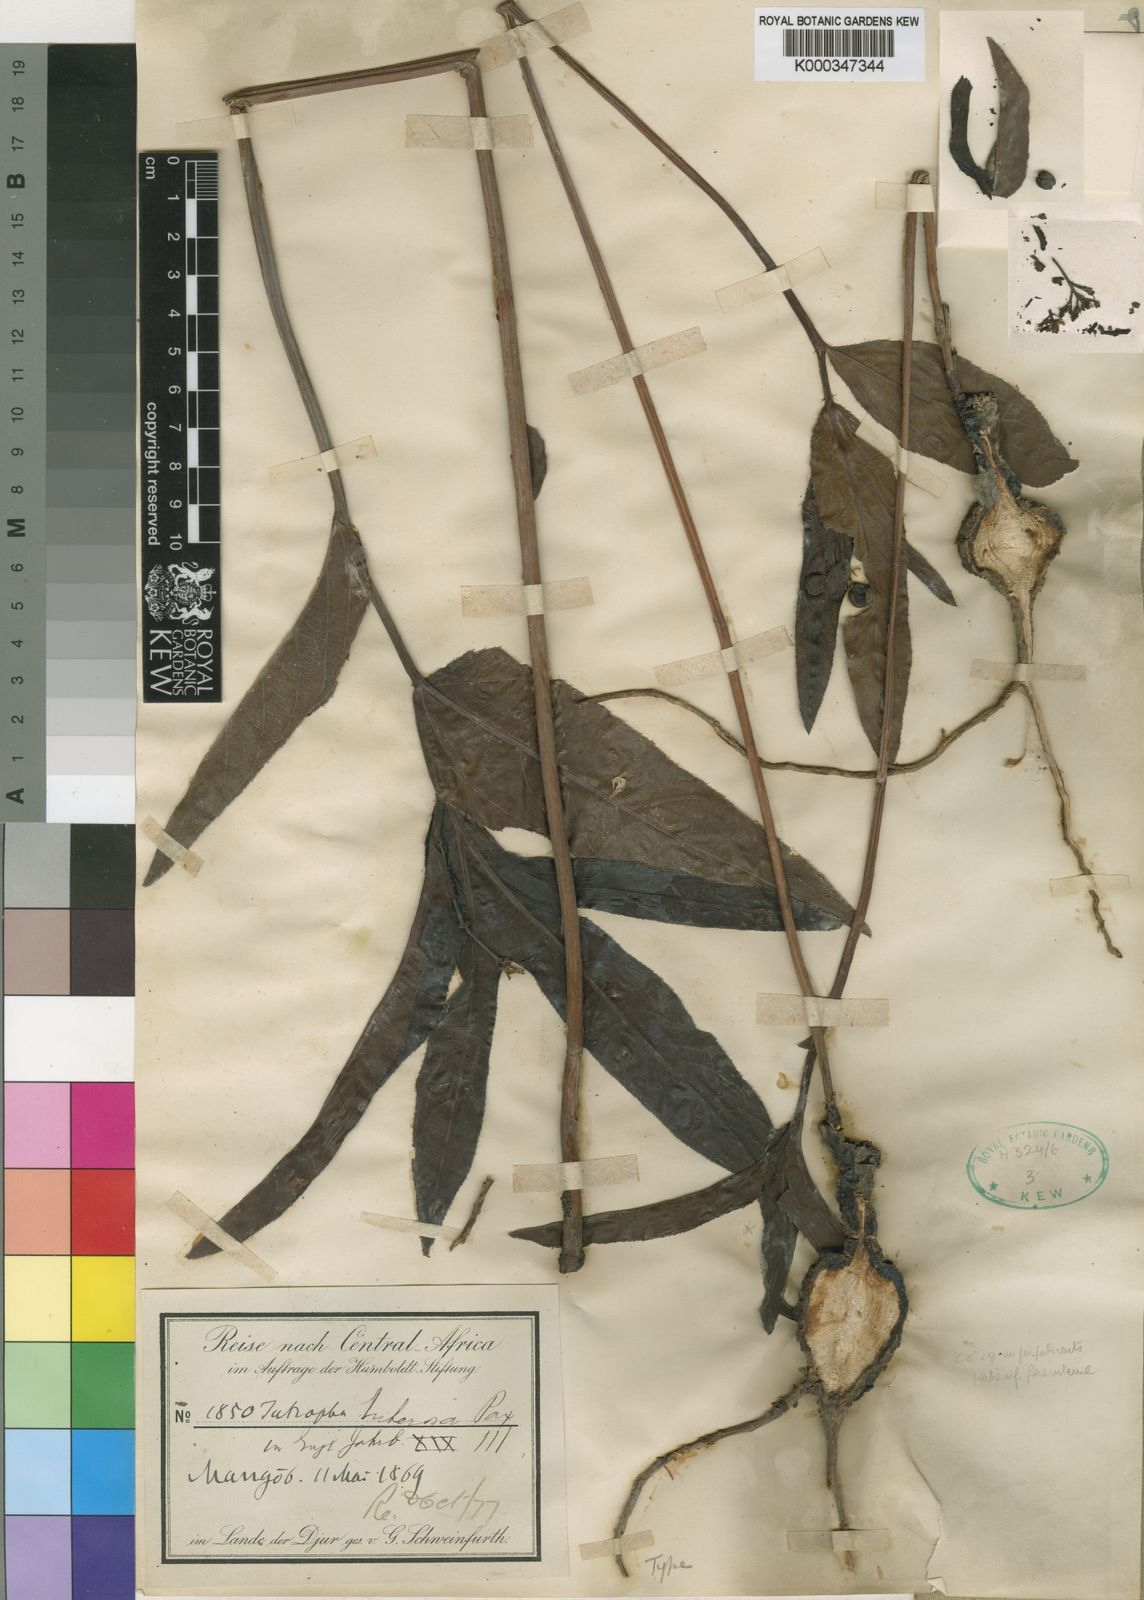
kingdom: Plantae
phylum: Tracheophyta
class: Magnoliopsida
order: Malpighiales
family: Euphorbiaceae
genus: Jatropha
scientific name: Jatropha afrotuberosa
